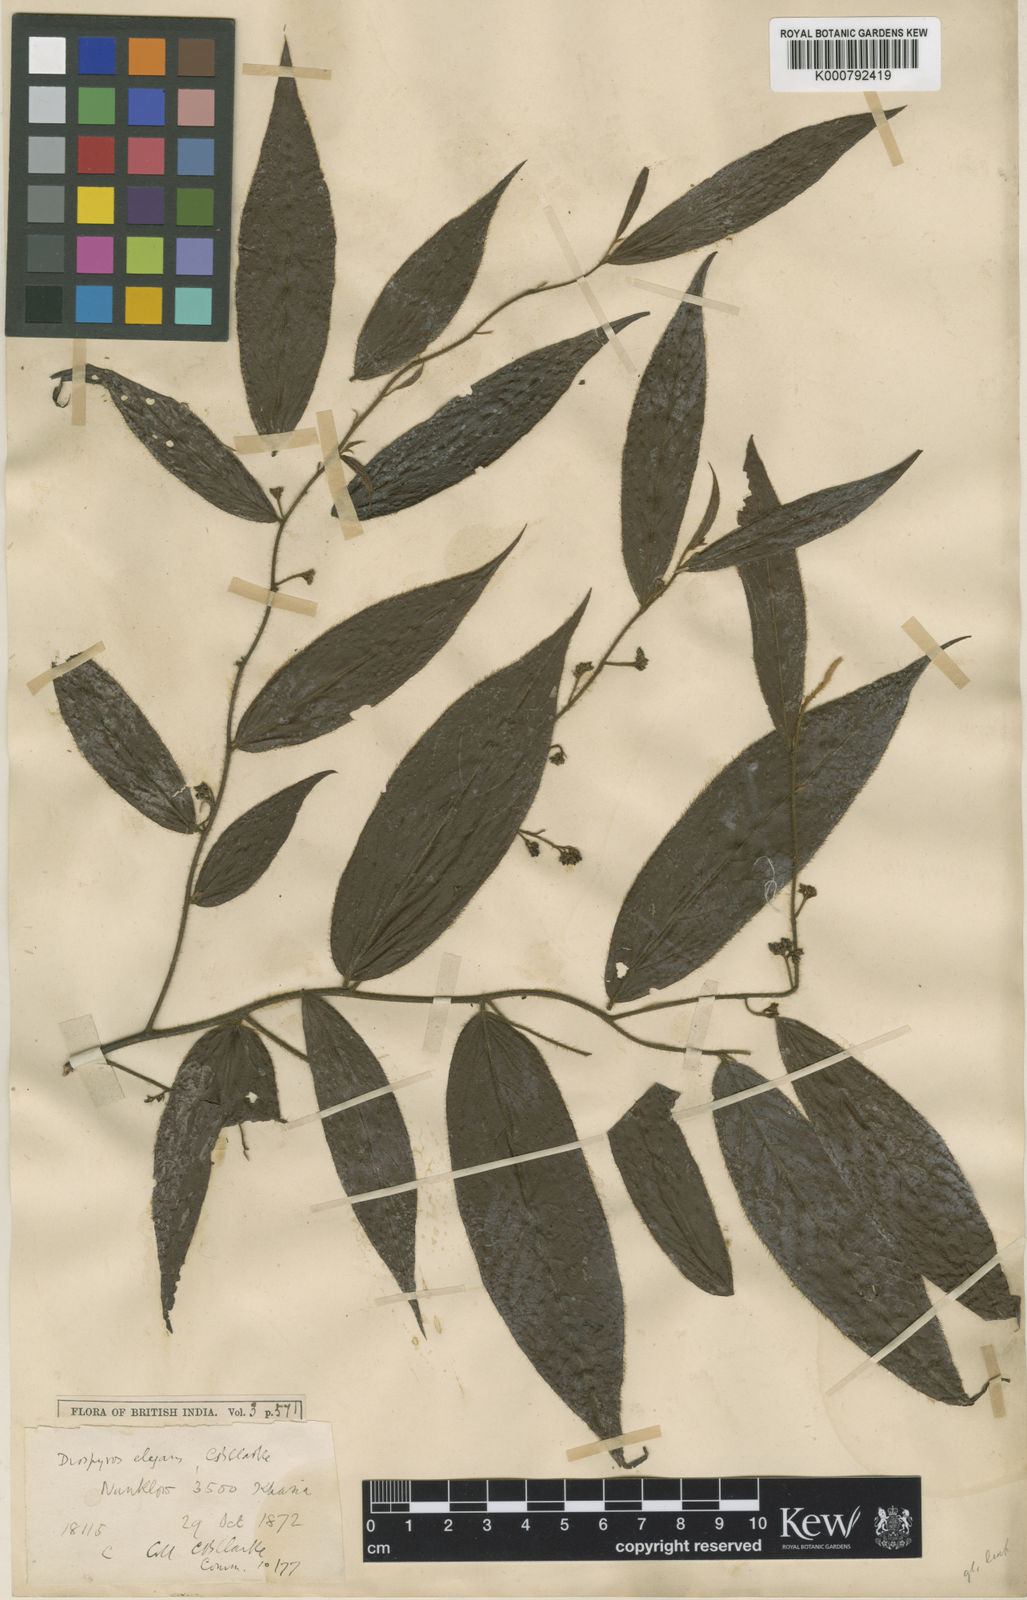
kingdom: Plantae
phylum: Tracheophyta
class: Magnoliopsida
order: Ericales
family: Ebenaceae
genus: Diospyros
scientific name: Diospyros elegans
